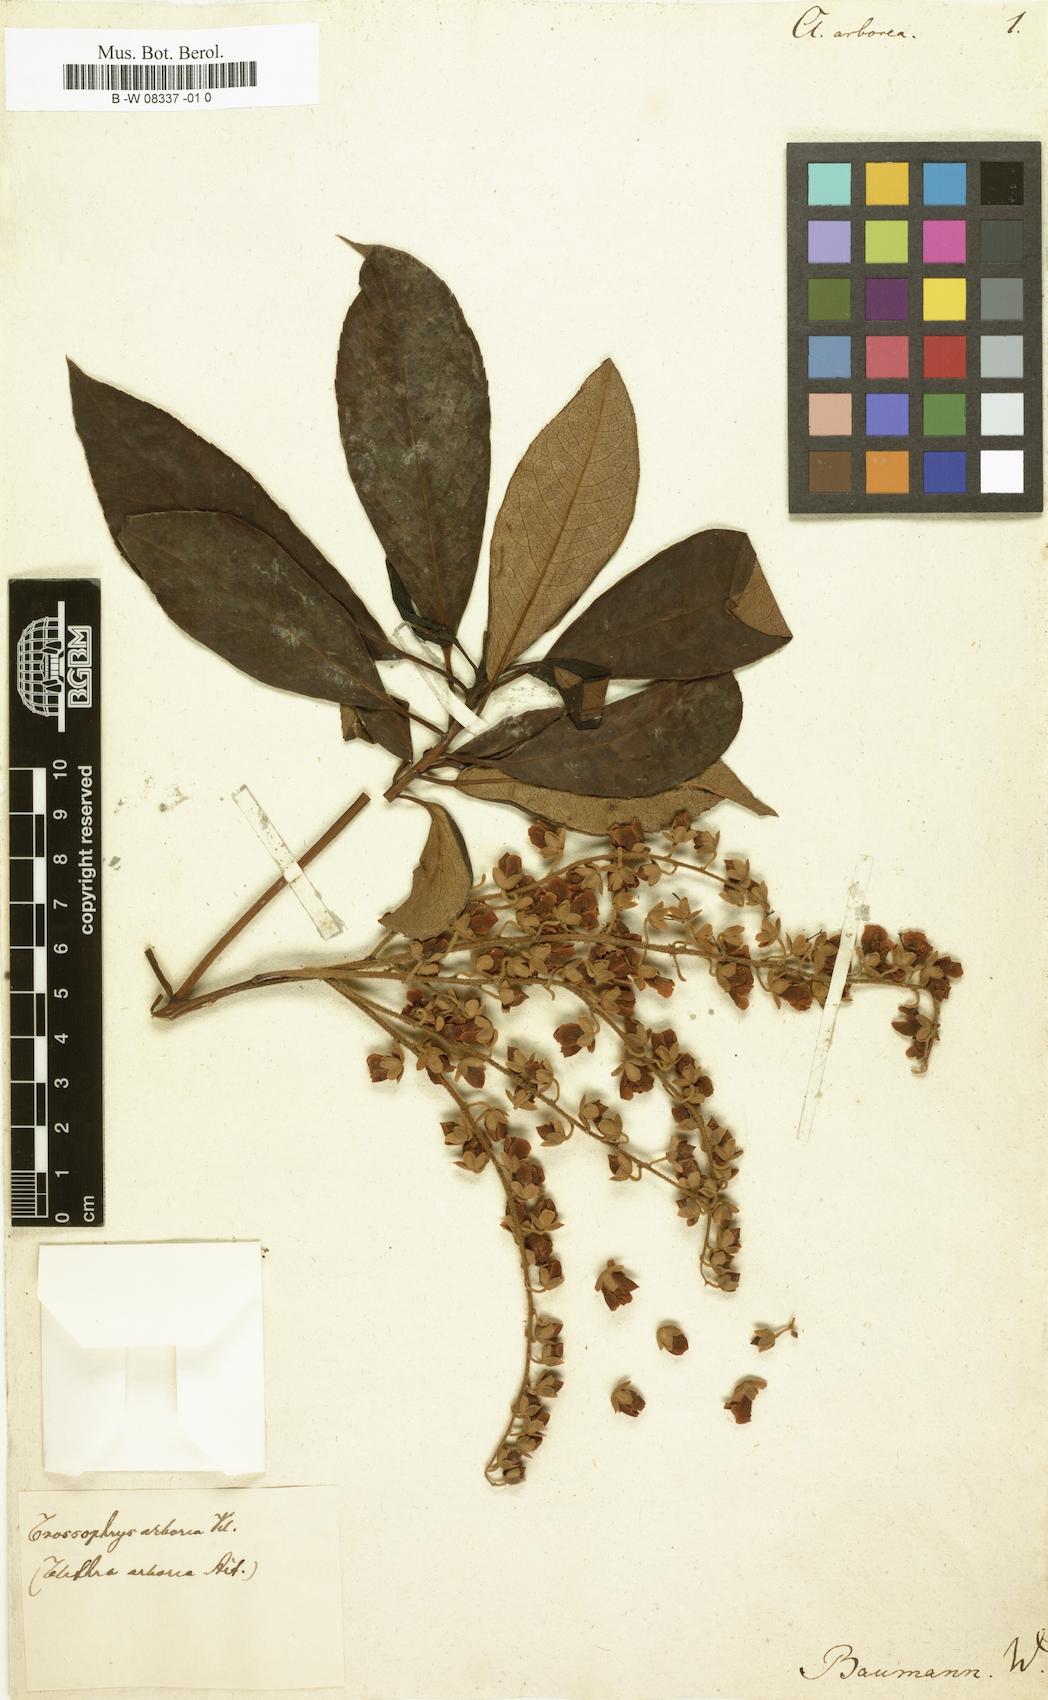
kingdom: Plantae
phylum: Tracheophyta
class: Magnoliopsida
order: Ericales
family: Clethraceae
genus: Clethra
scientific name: Clethra arborea
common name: Lily-of-the-valley-tree
